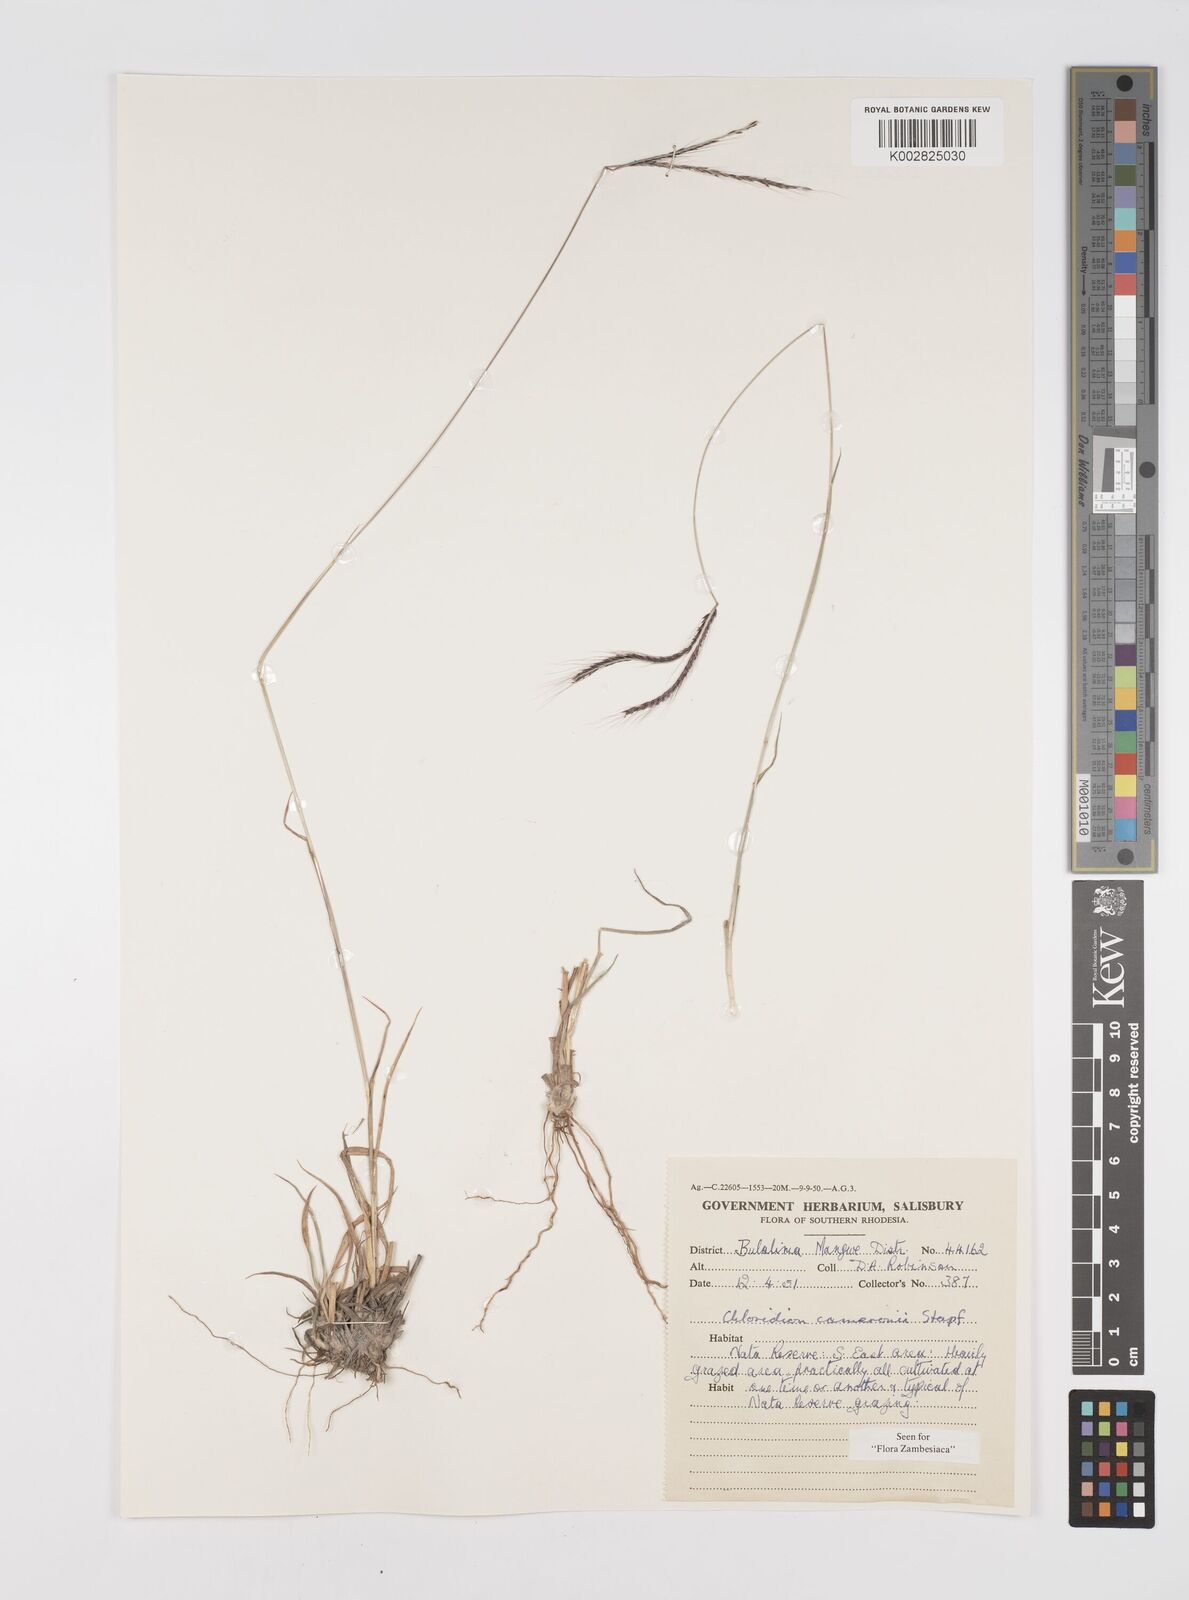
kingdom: Plantae
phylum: Tracheophyta
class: Liliopsida
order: Poales
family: Poaceae
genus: Stereochlaena
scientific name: Stereochlaena cameronii
